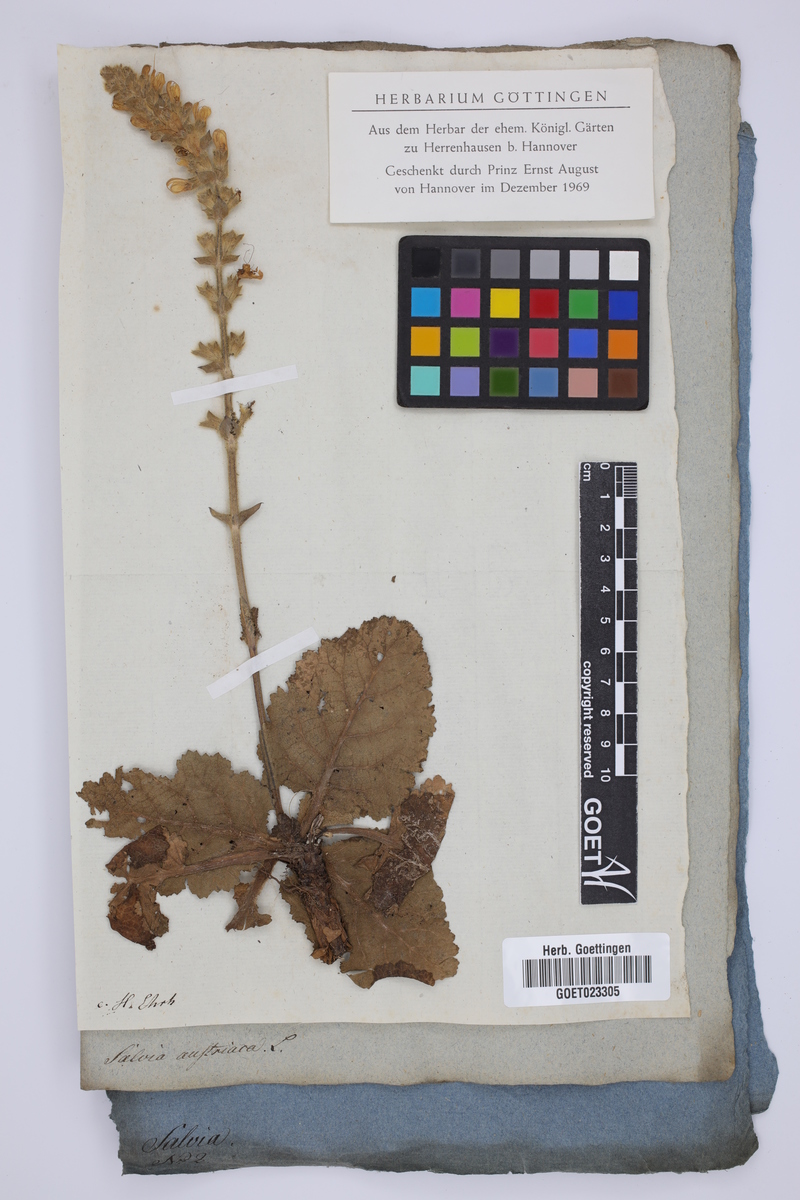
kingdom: Plantae
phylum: Tracheophyta
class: Magnoliopsida
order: Lamiales
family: Lamiaceae
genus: Salvia
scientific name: Salvia austriaca
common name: Austrian sage
